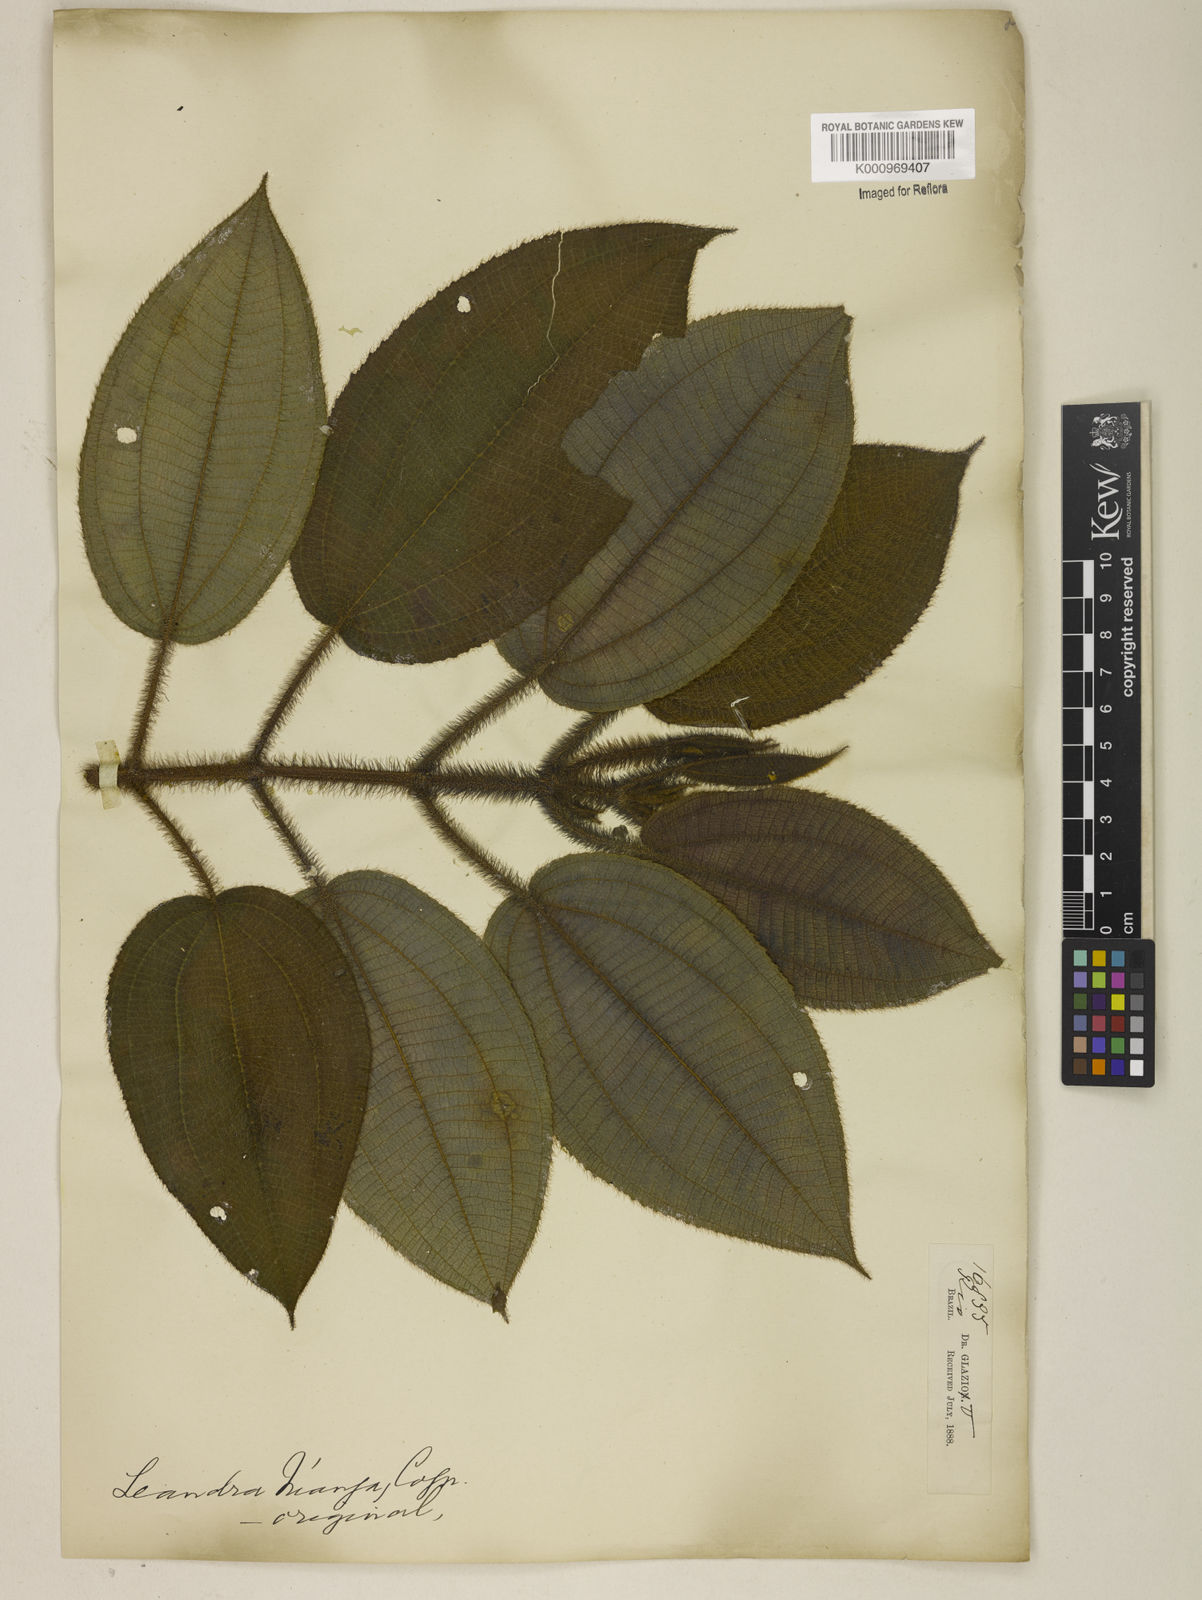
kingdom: Plantae
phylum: Tracheophyta
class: Magnoliopsida
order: Myrtales
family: Melastomataceae
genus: Miconia
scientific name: Miconia nianga
